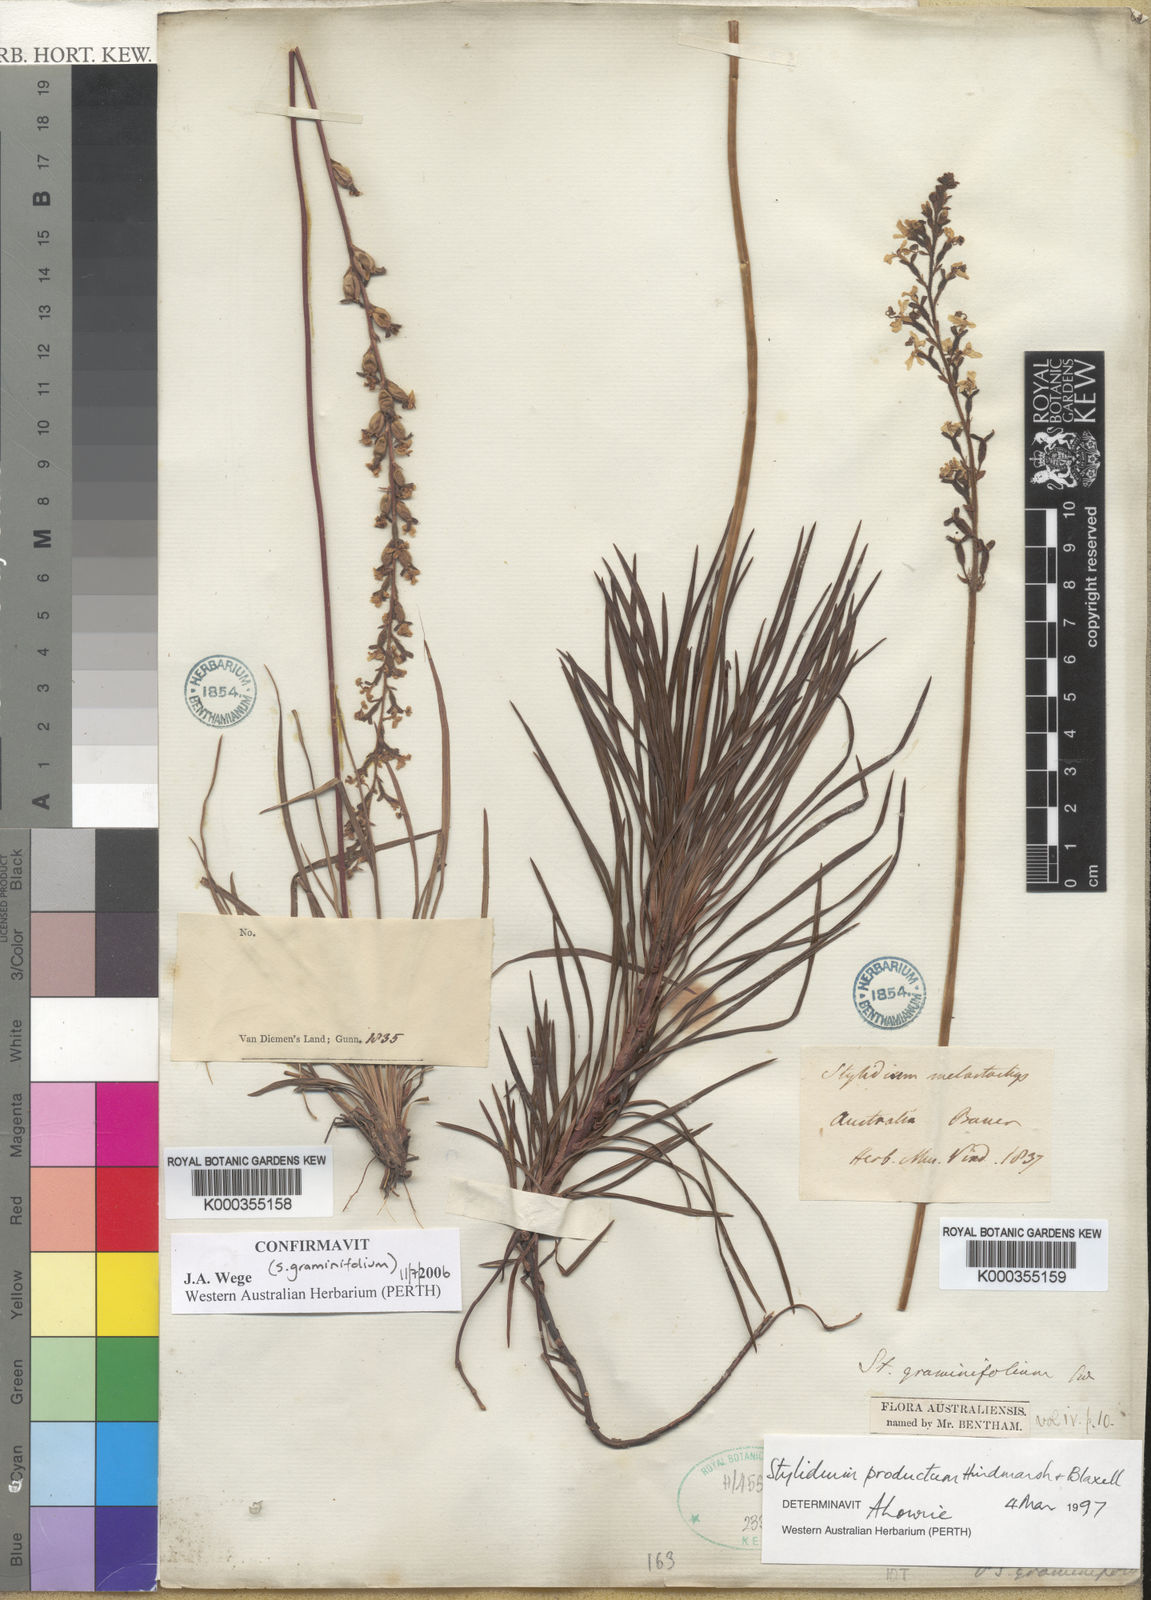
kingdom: Plantae
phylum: Tracheophyta
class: Magnoliopsida
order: Asterales
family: Stylidiaceae
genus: Stylidium
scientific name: Stylidium productum
